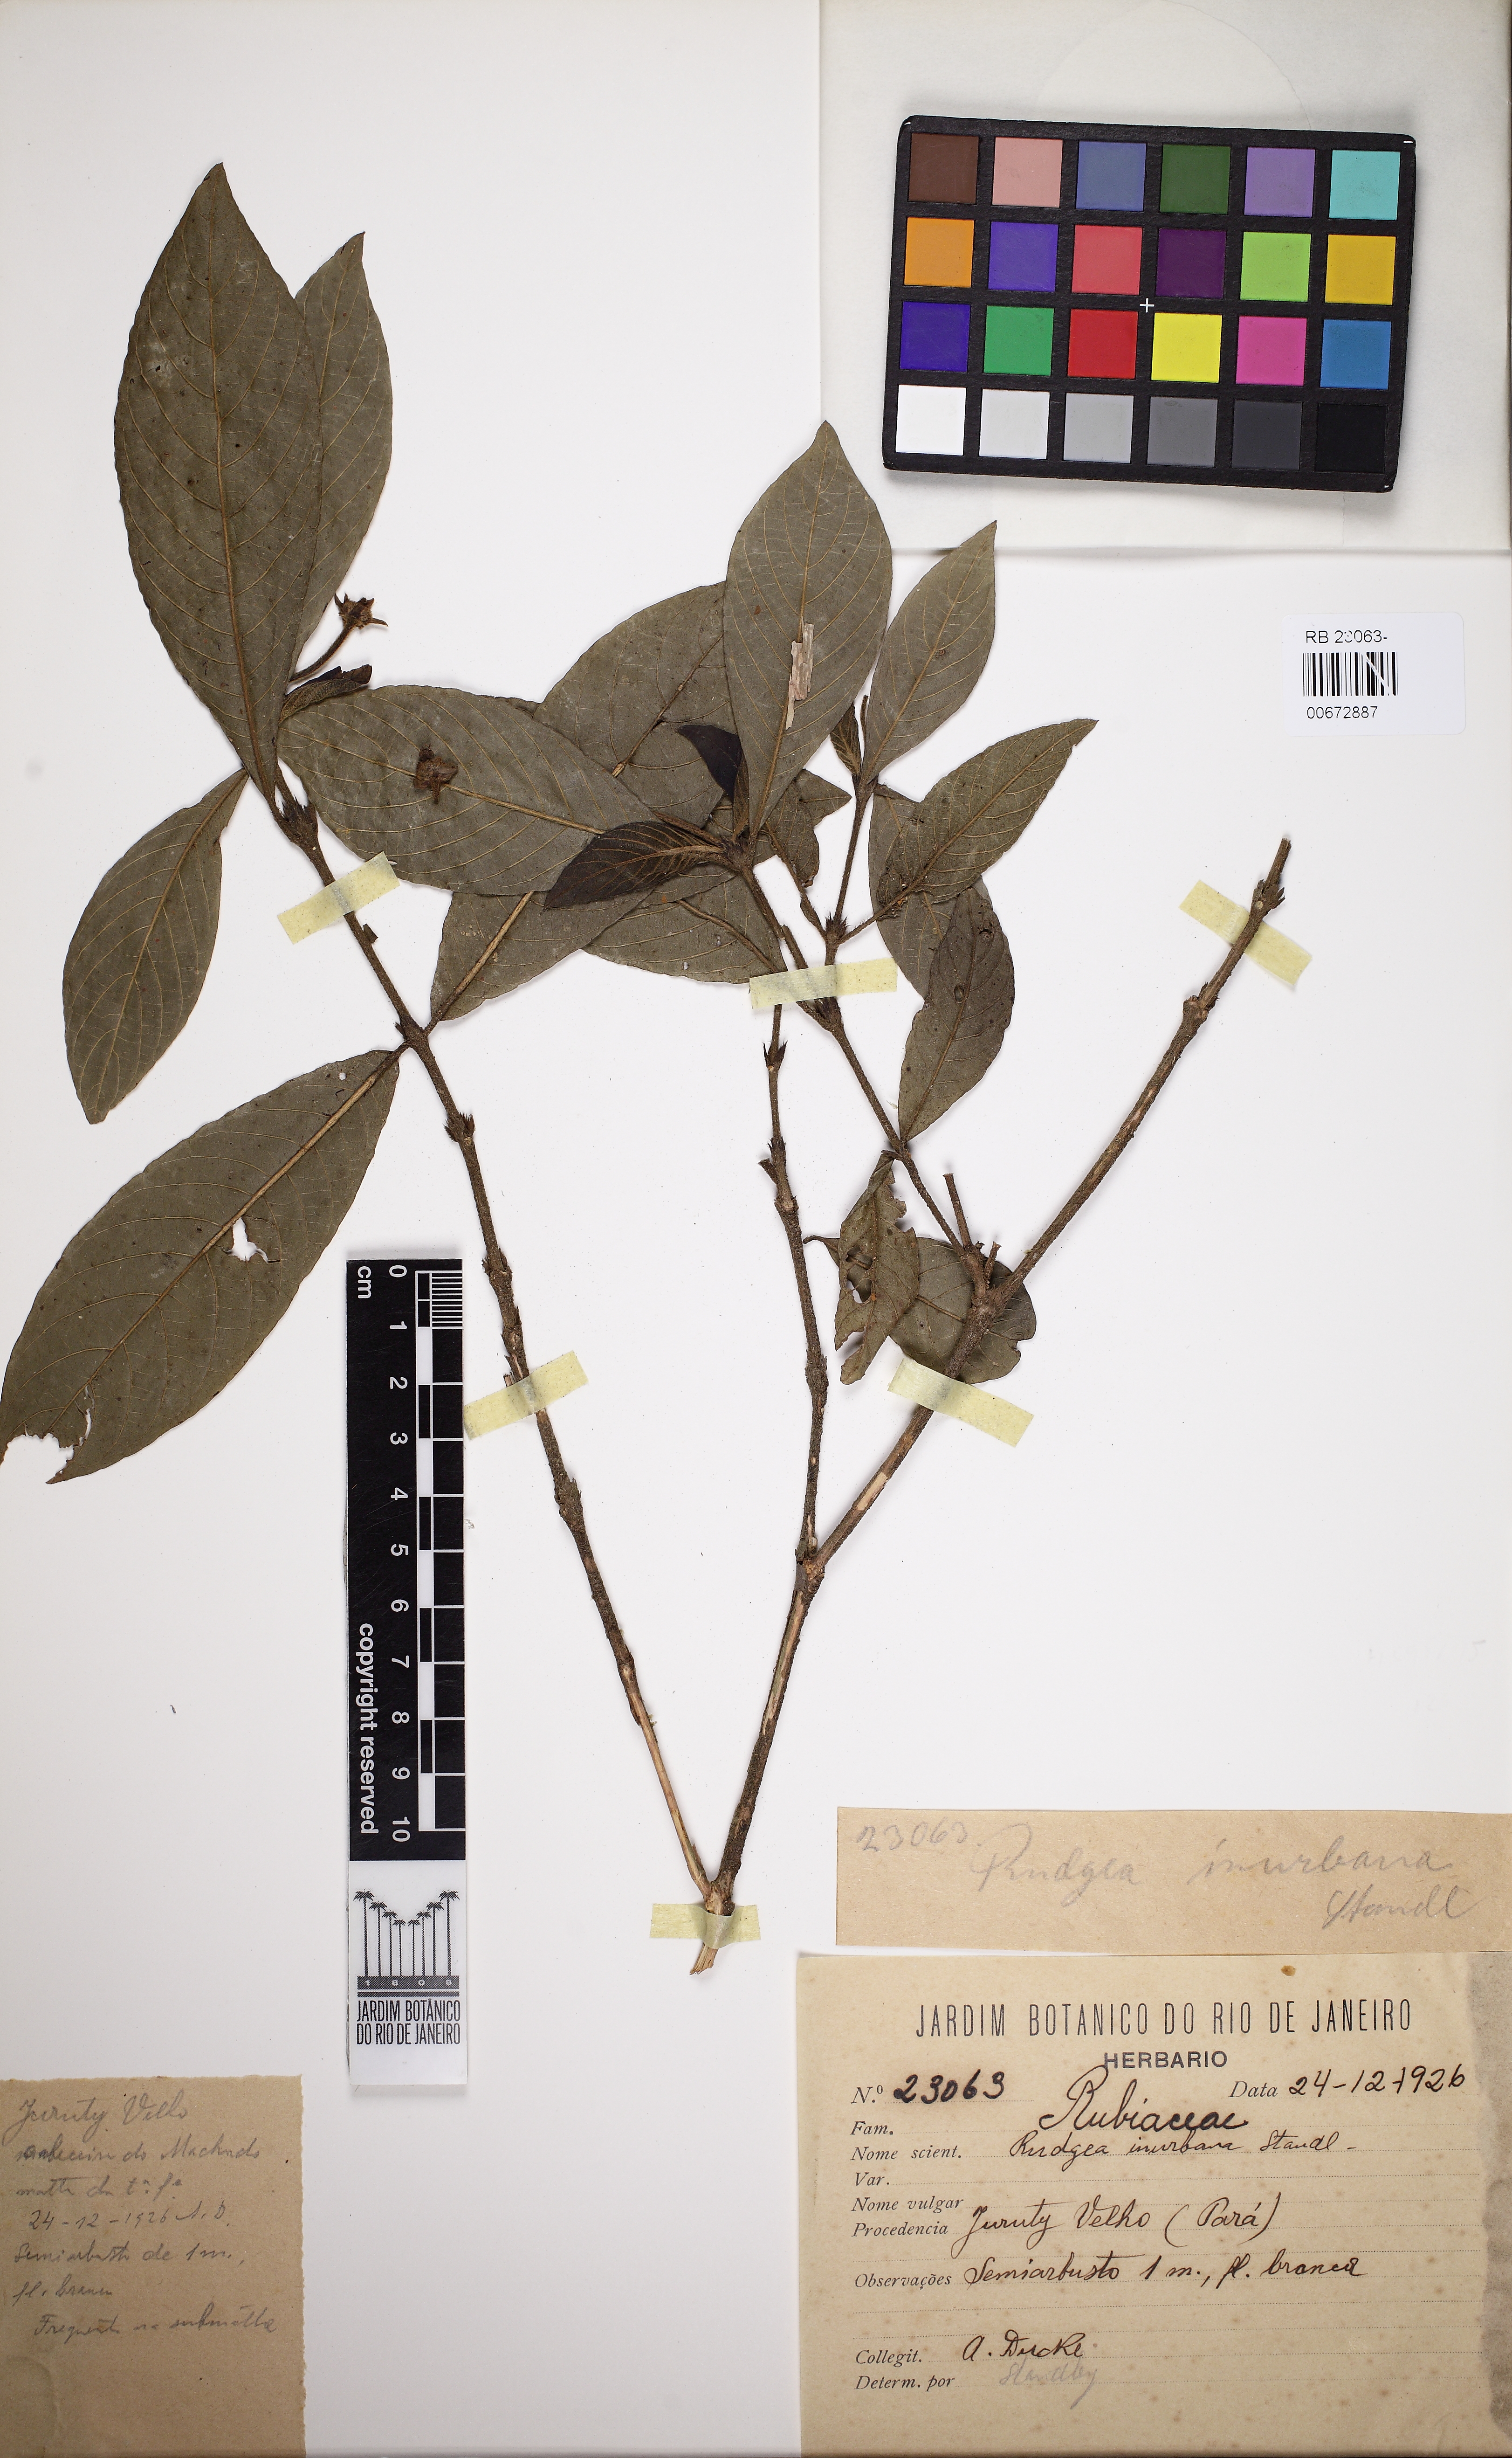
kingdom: Plantae
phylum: Tracheophyta
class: Magnoliopsida
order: Gentianales
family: Rubiaceae
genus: Palicourea
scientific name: Palicourea sphaerocephala
